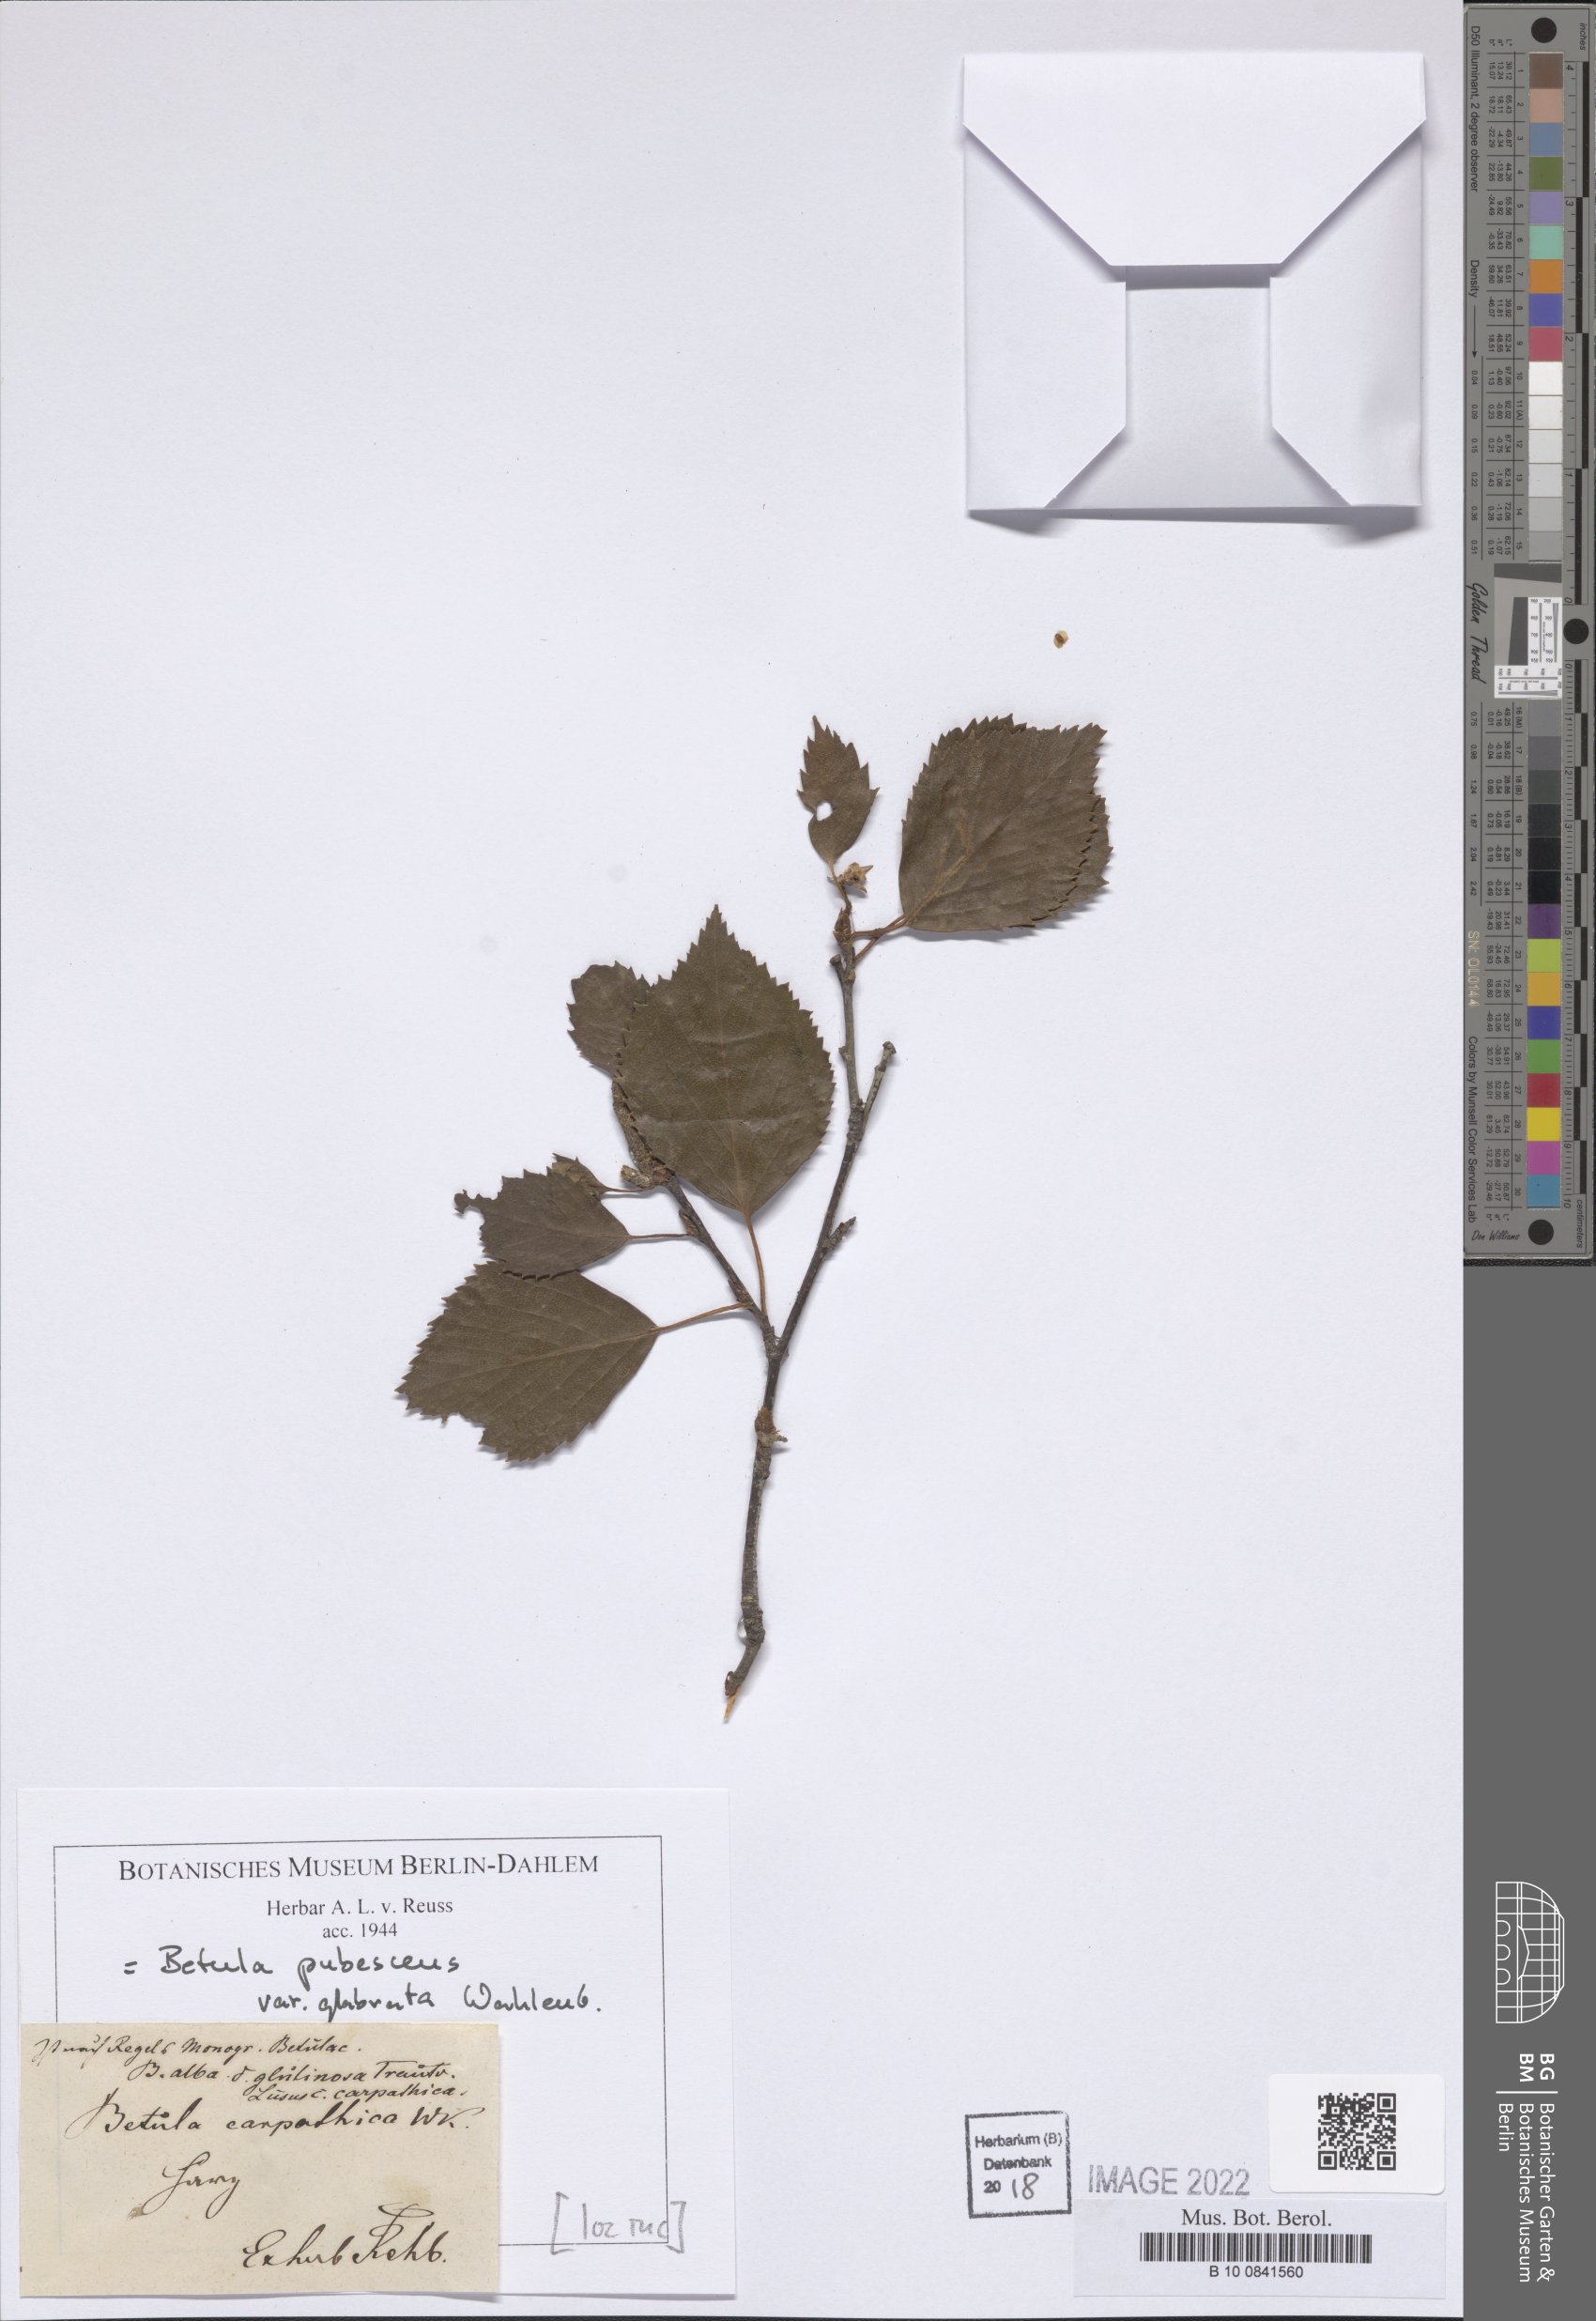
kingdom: Plantae
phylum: Tracheophyta
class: Magnoliopsida
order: Fagales
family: Betulaceae
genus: Betula
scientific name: Betula pubescens
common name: Downy birch
